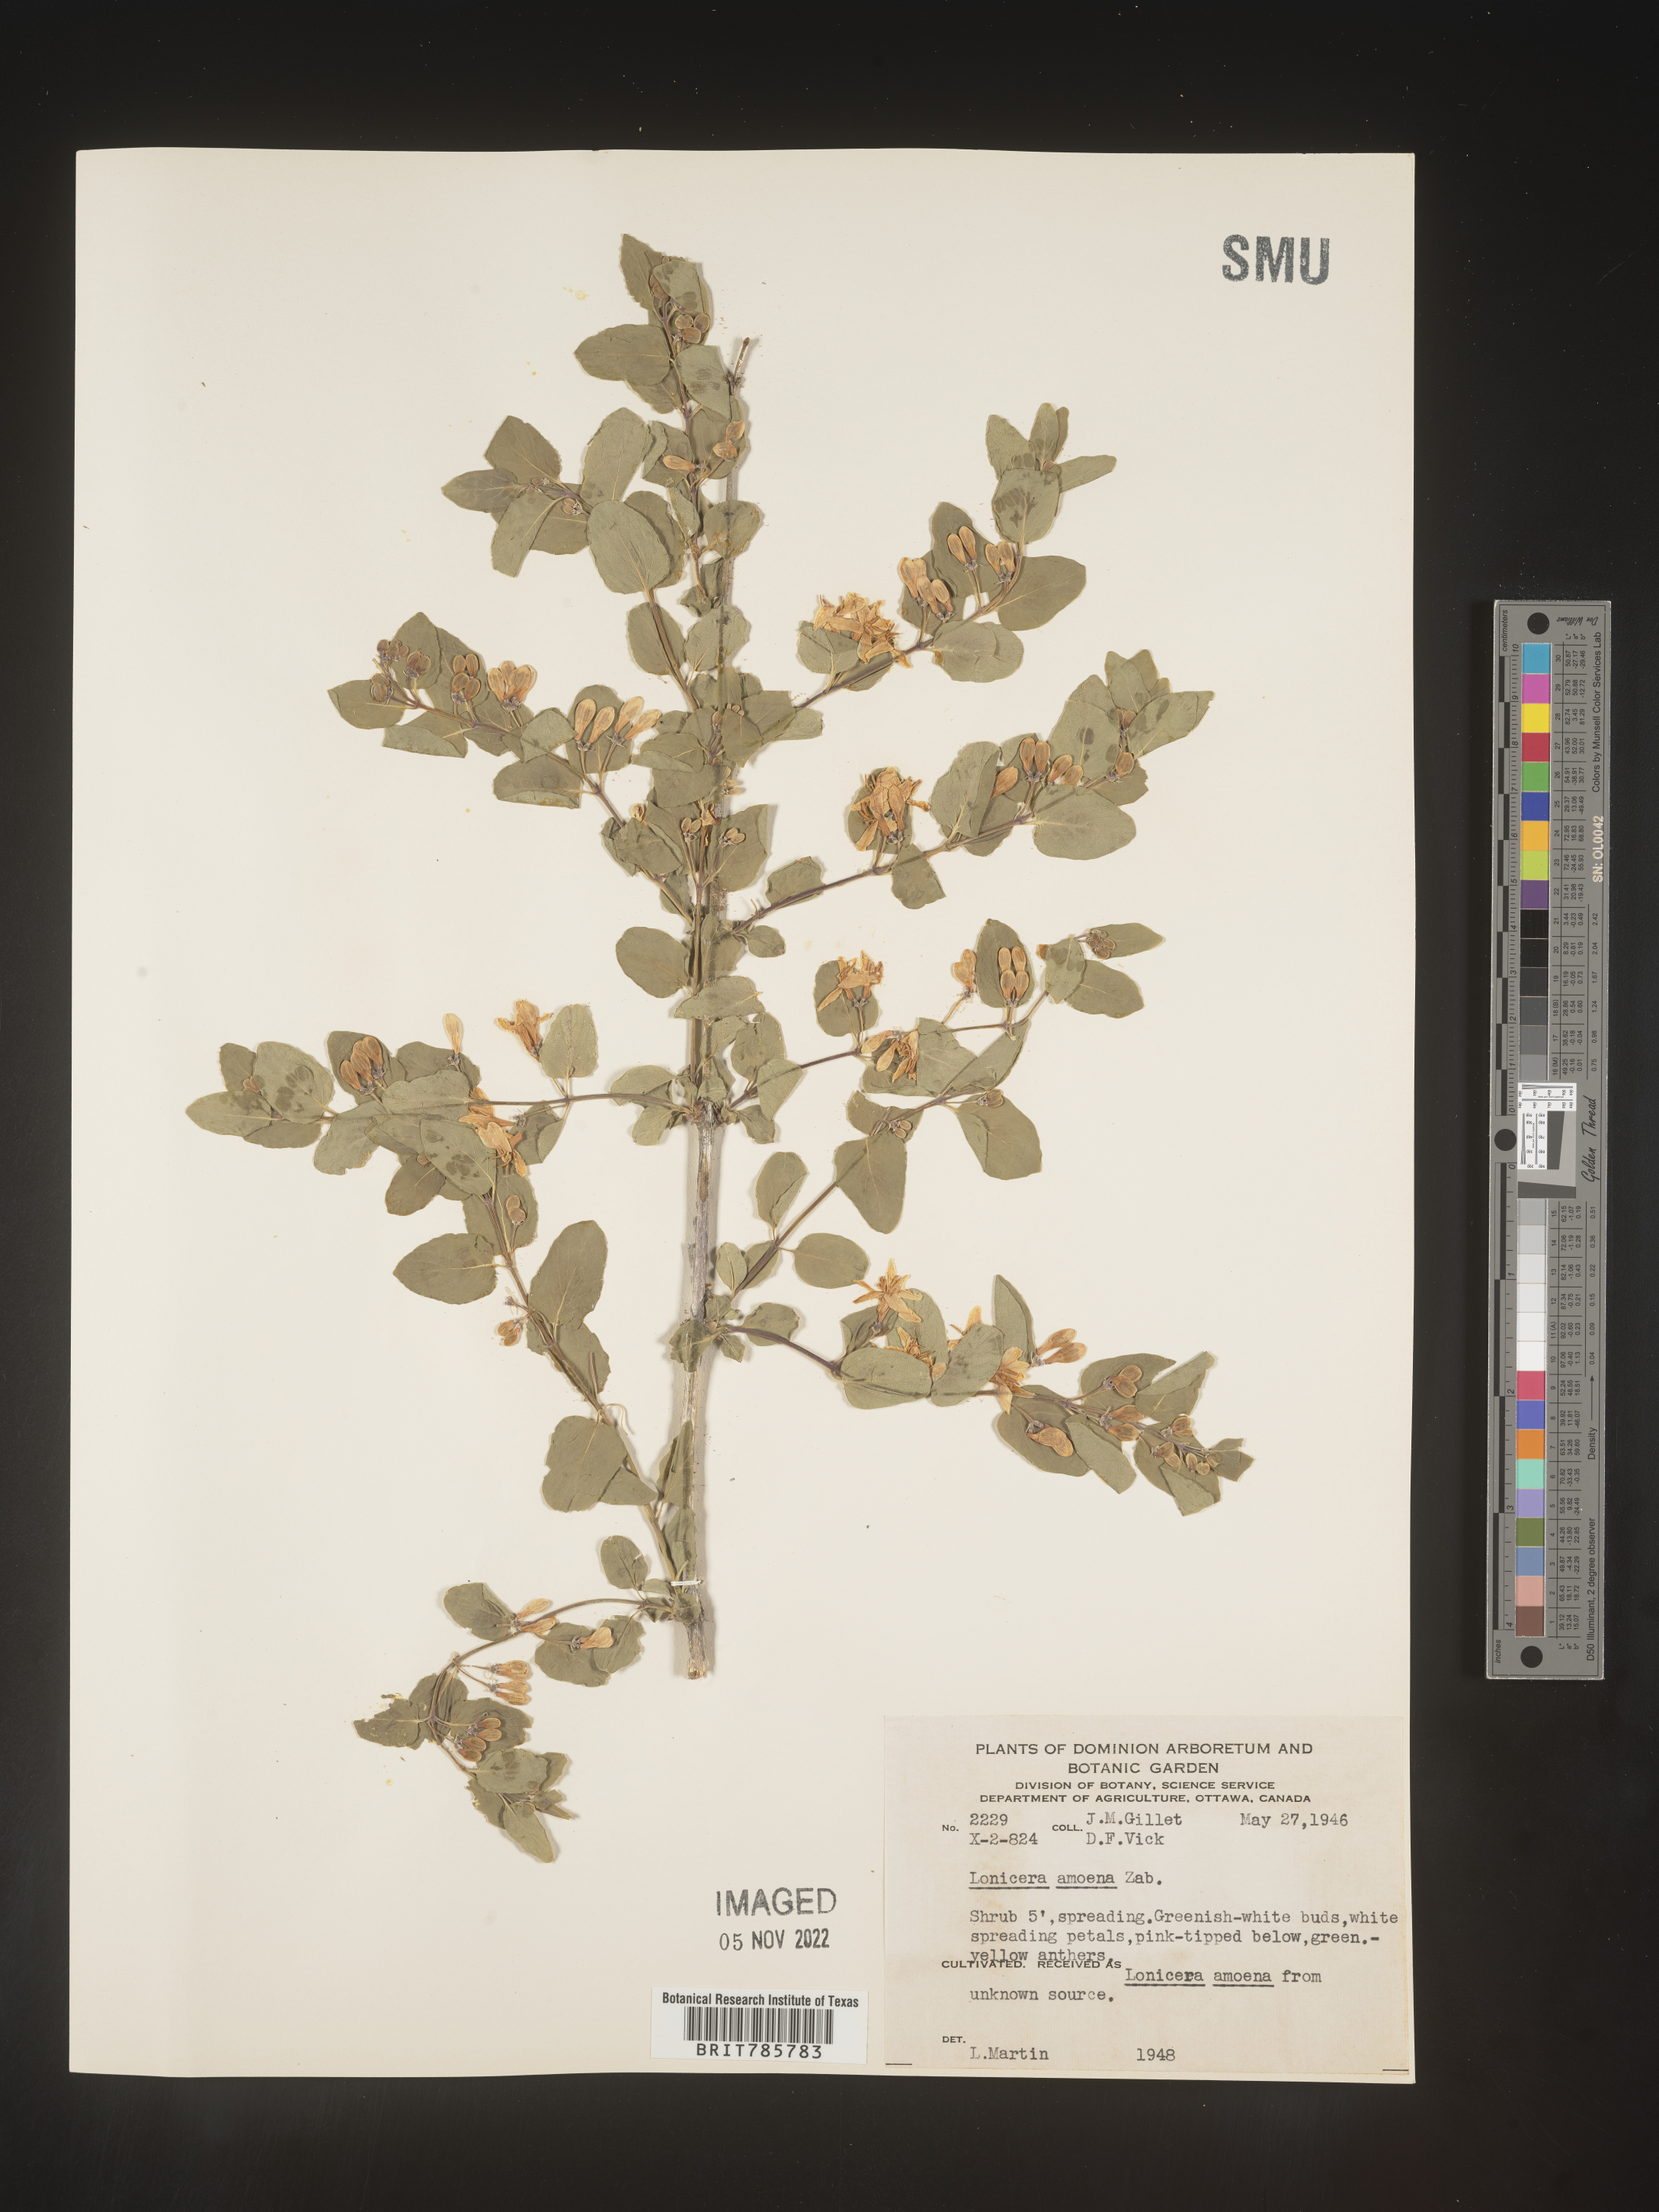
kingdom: Plantae
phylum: Tracheophyta
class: Magnoliopsida
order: Dipsacales
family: Caprifoliaceae
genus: Lonicera
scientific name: Lonicera
